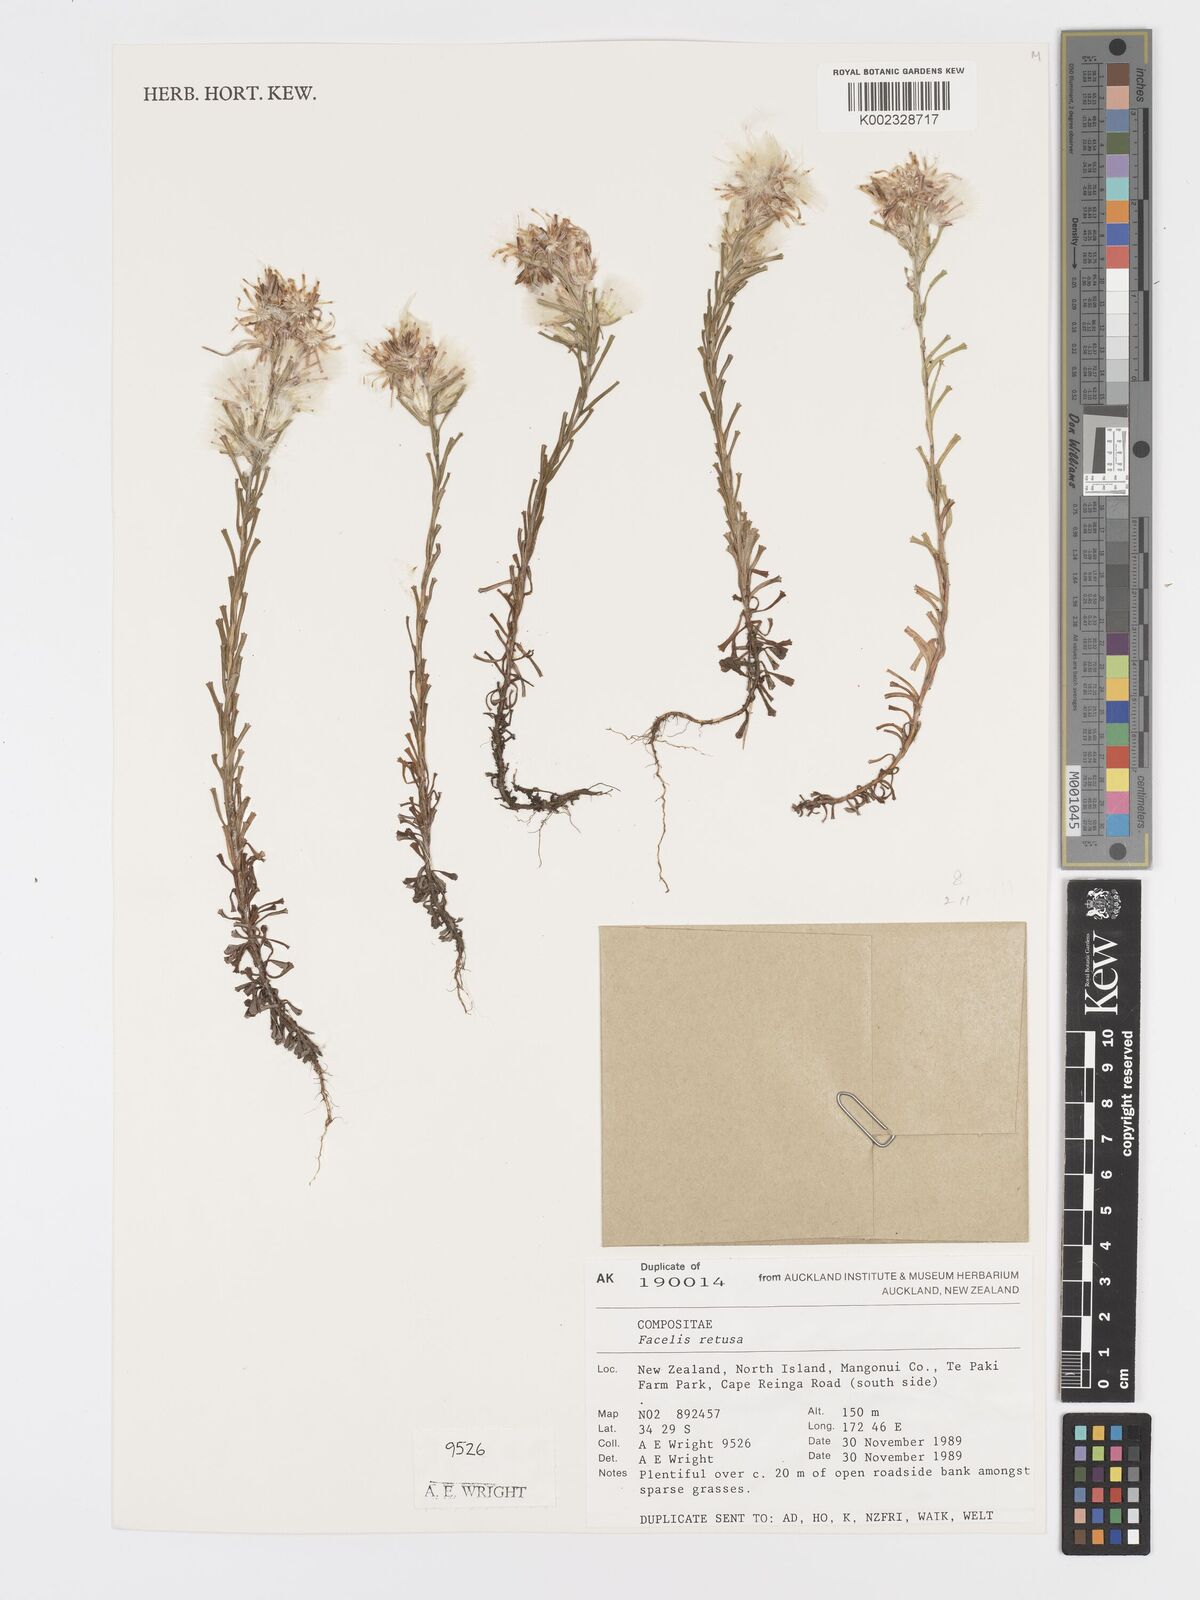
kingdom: Plantae
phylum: Tracheophyta
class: Magnoliopsida
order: Asterales
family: Asteraceae
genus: Facelis
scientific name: Facelis retusa
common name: Annual trampweed
